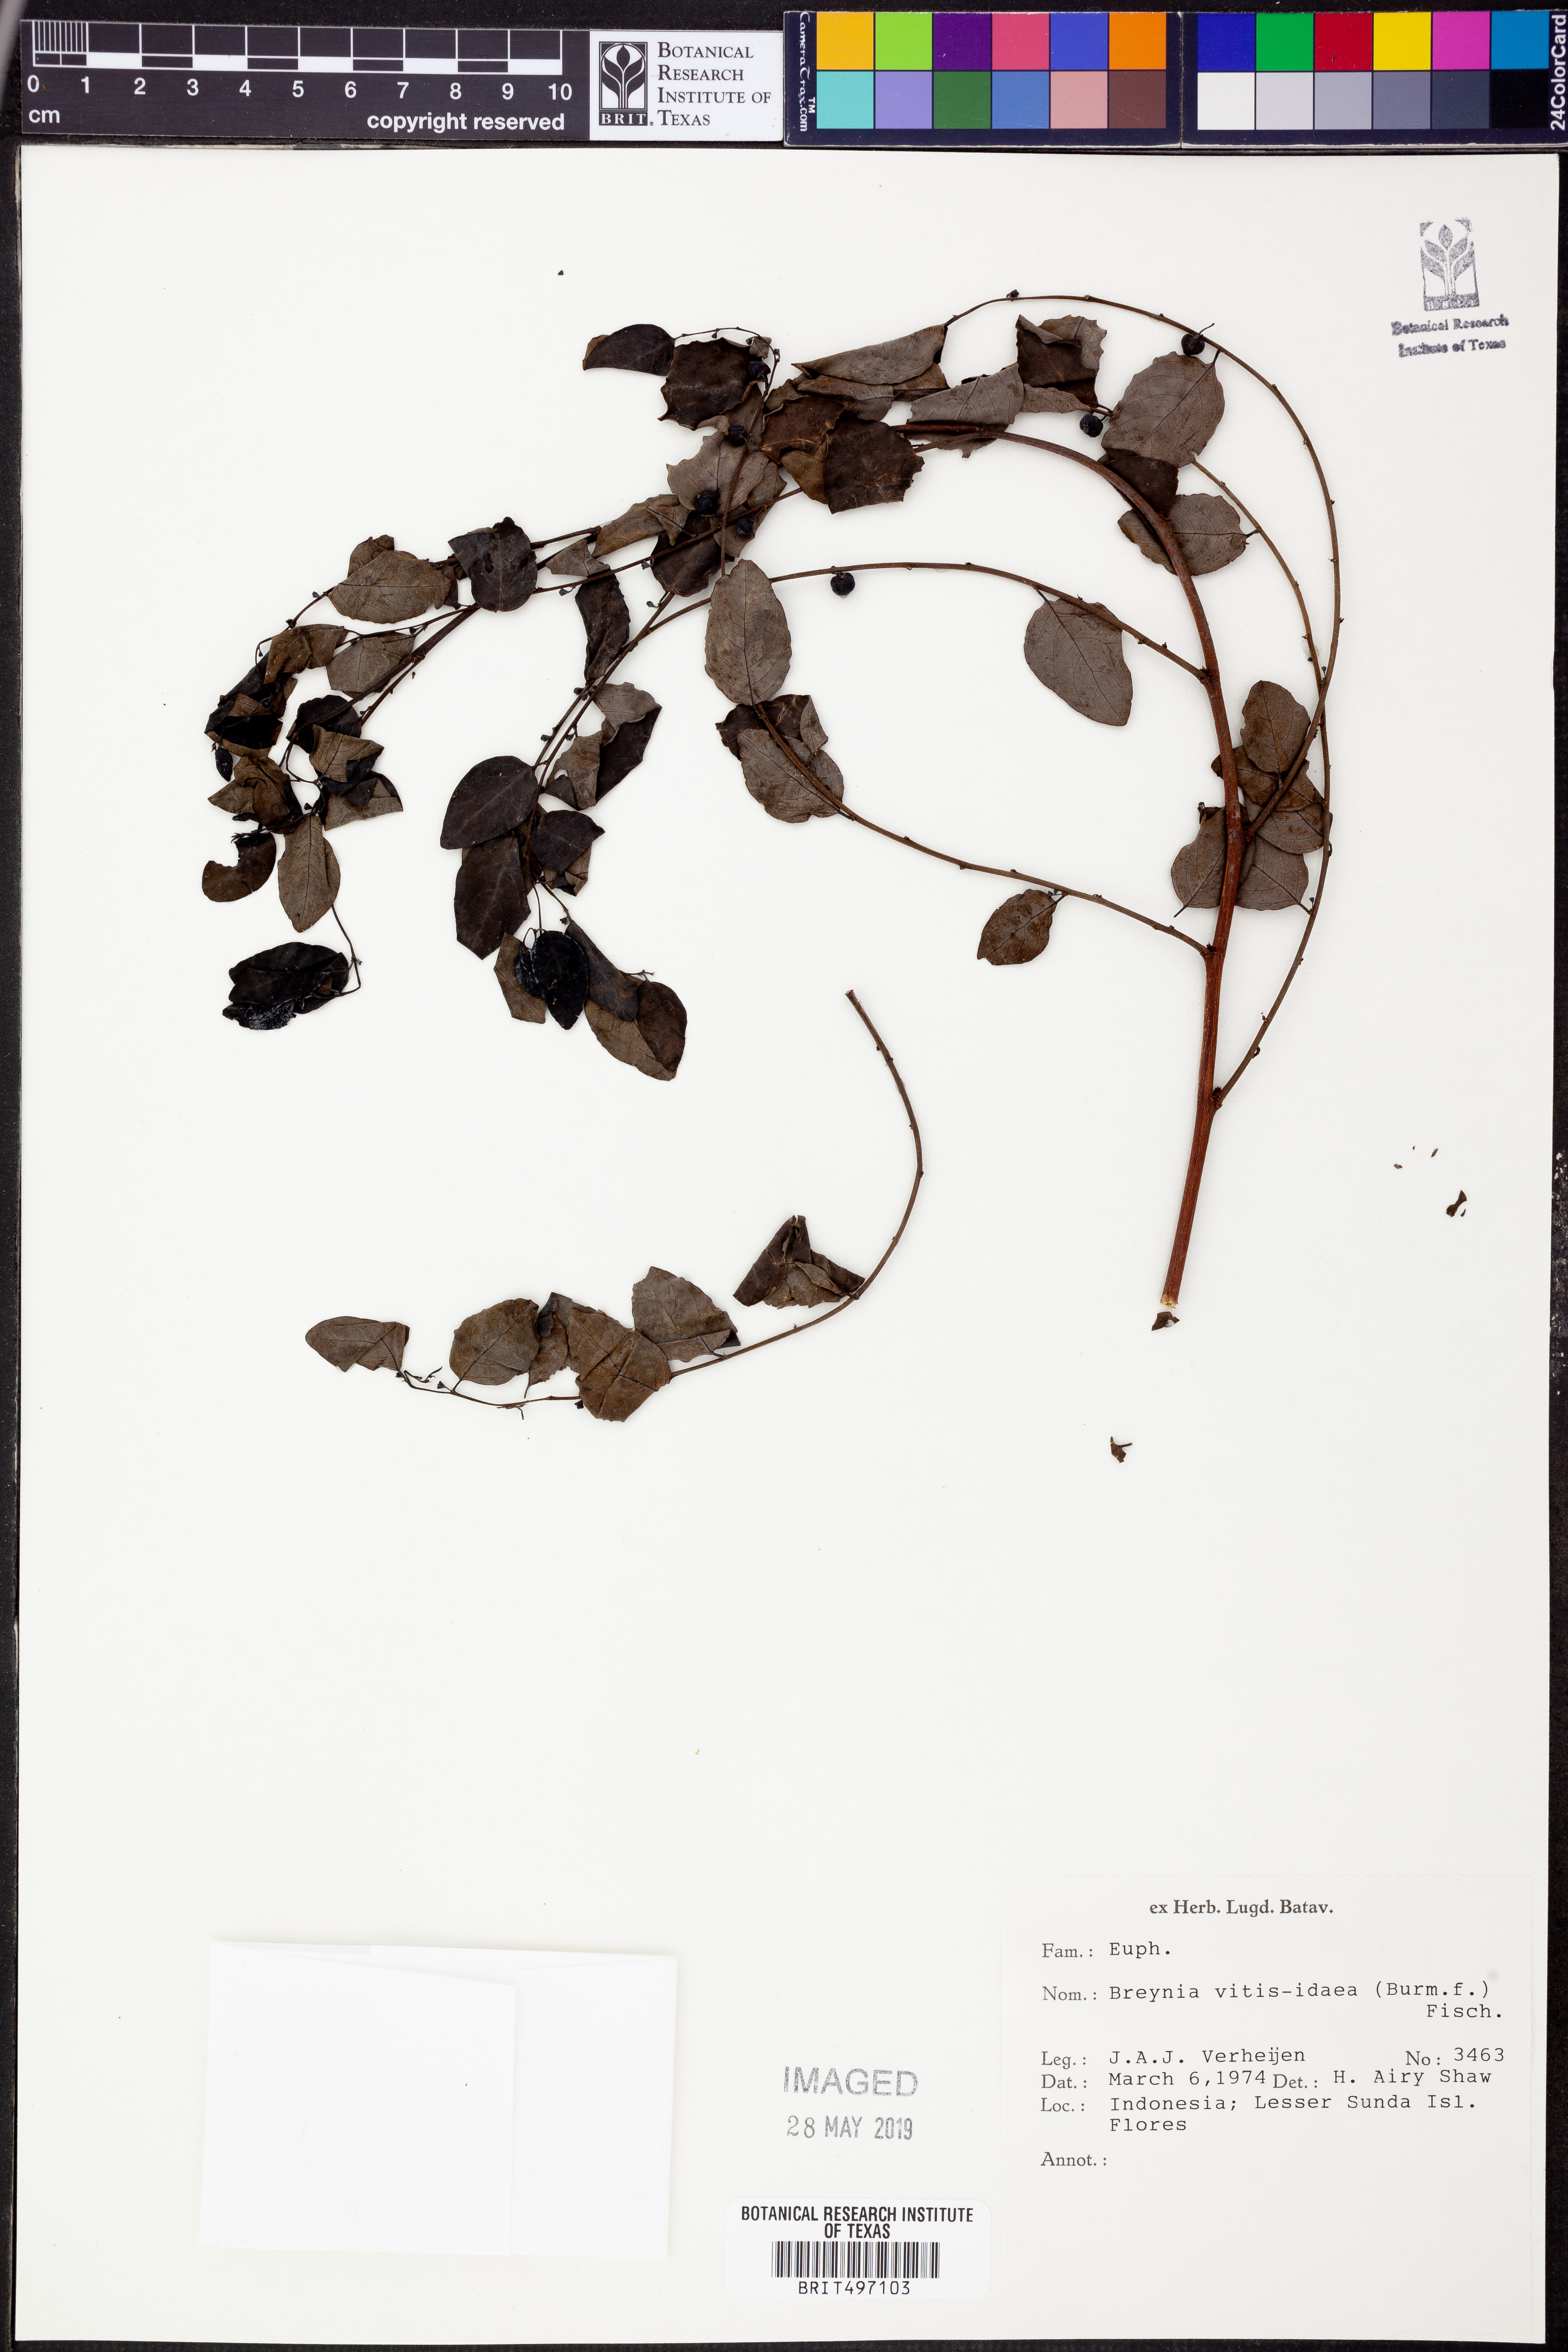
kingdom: Plantae
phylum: Tracheophyta
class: Magnoliopsida
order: Malpighiales
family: Phyllanthaceae
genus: Breynia
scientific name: Breynia vitis-idaea
